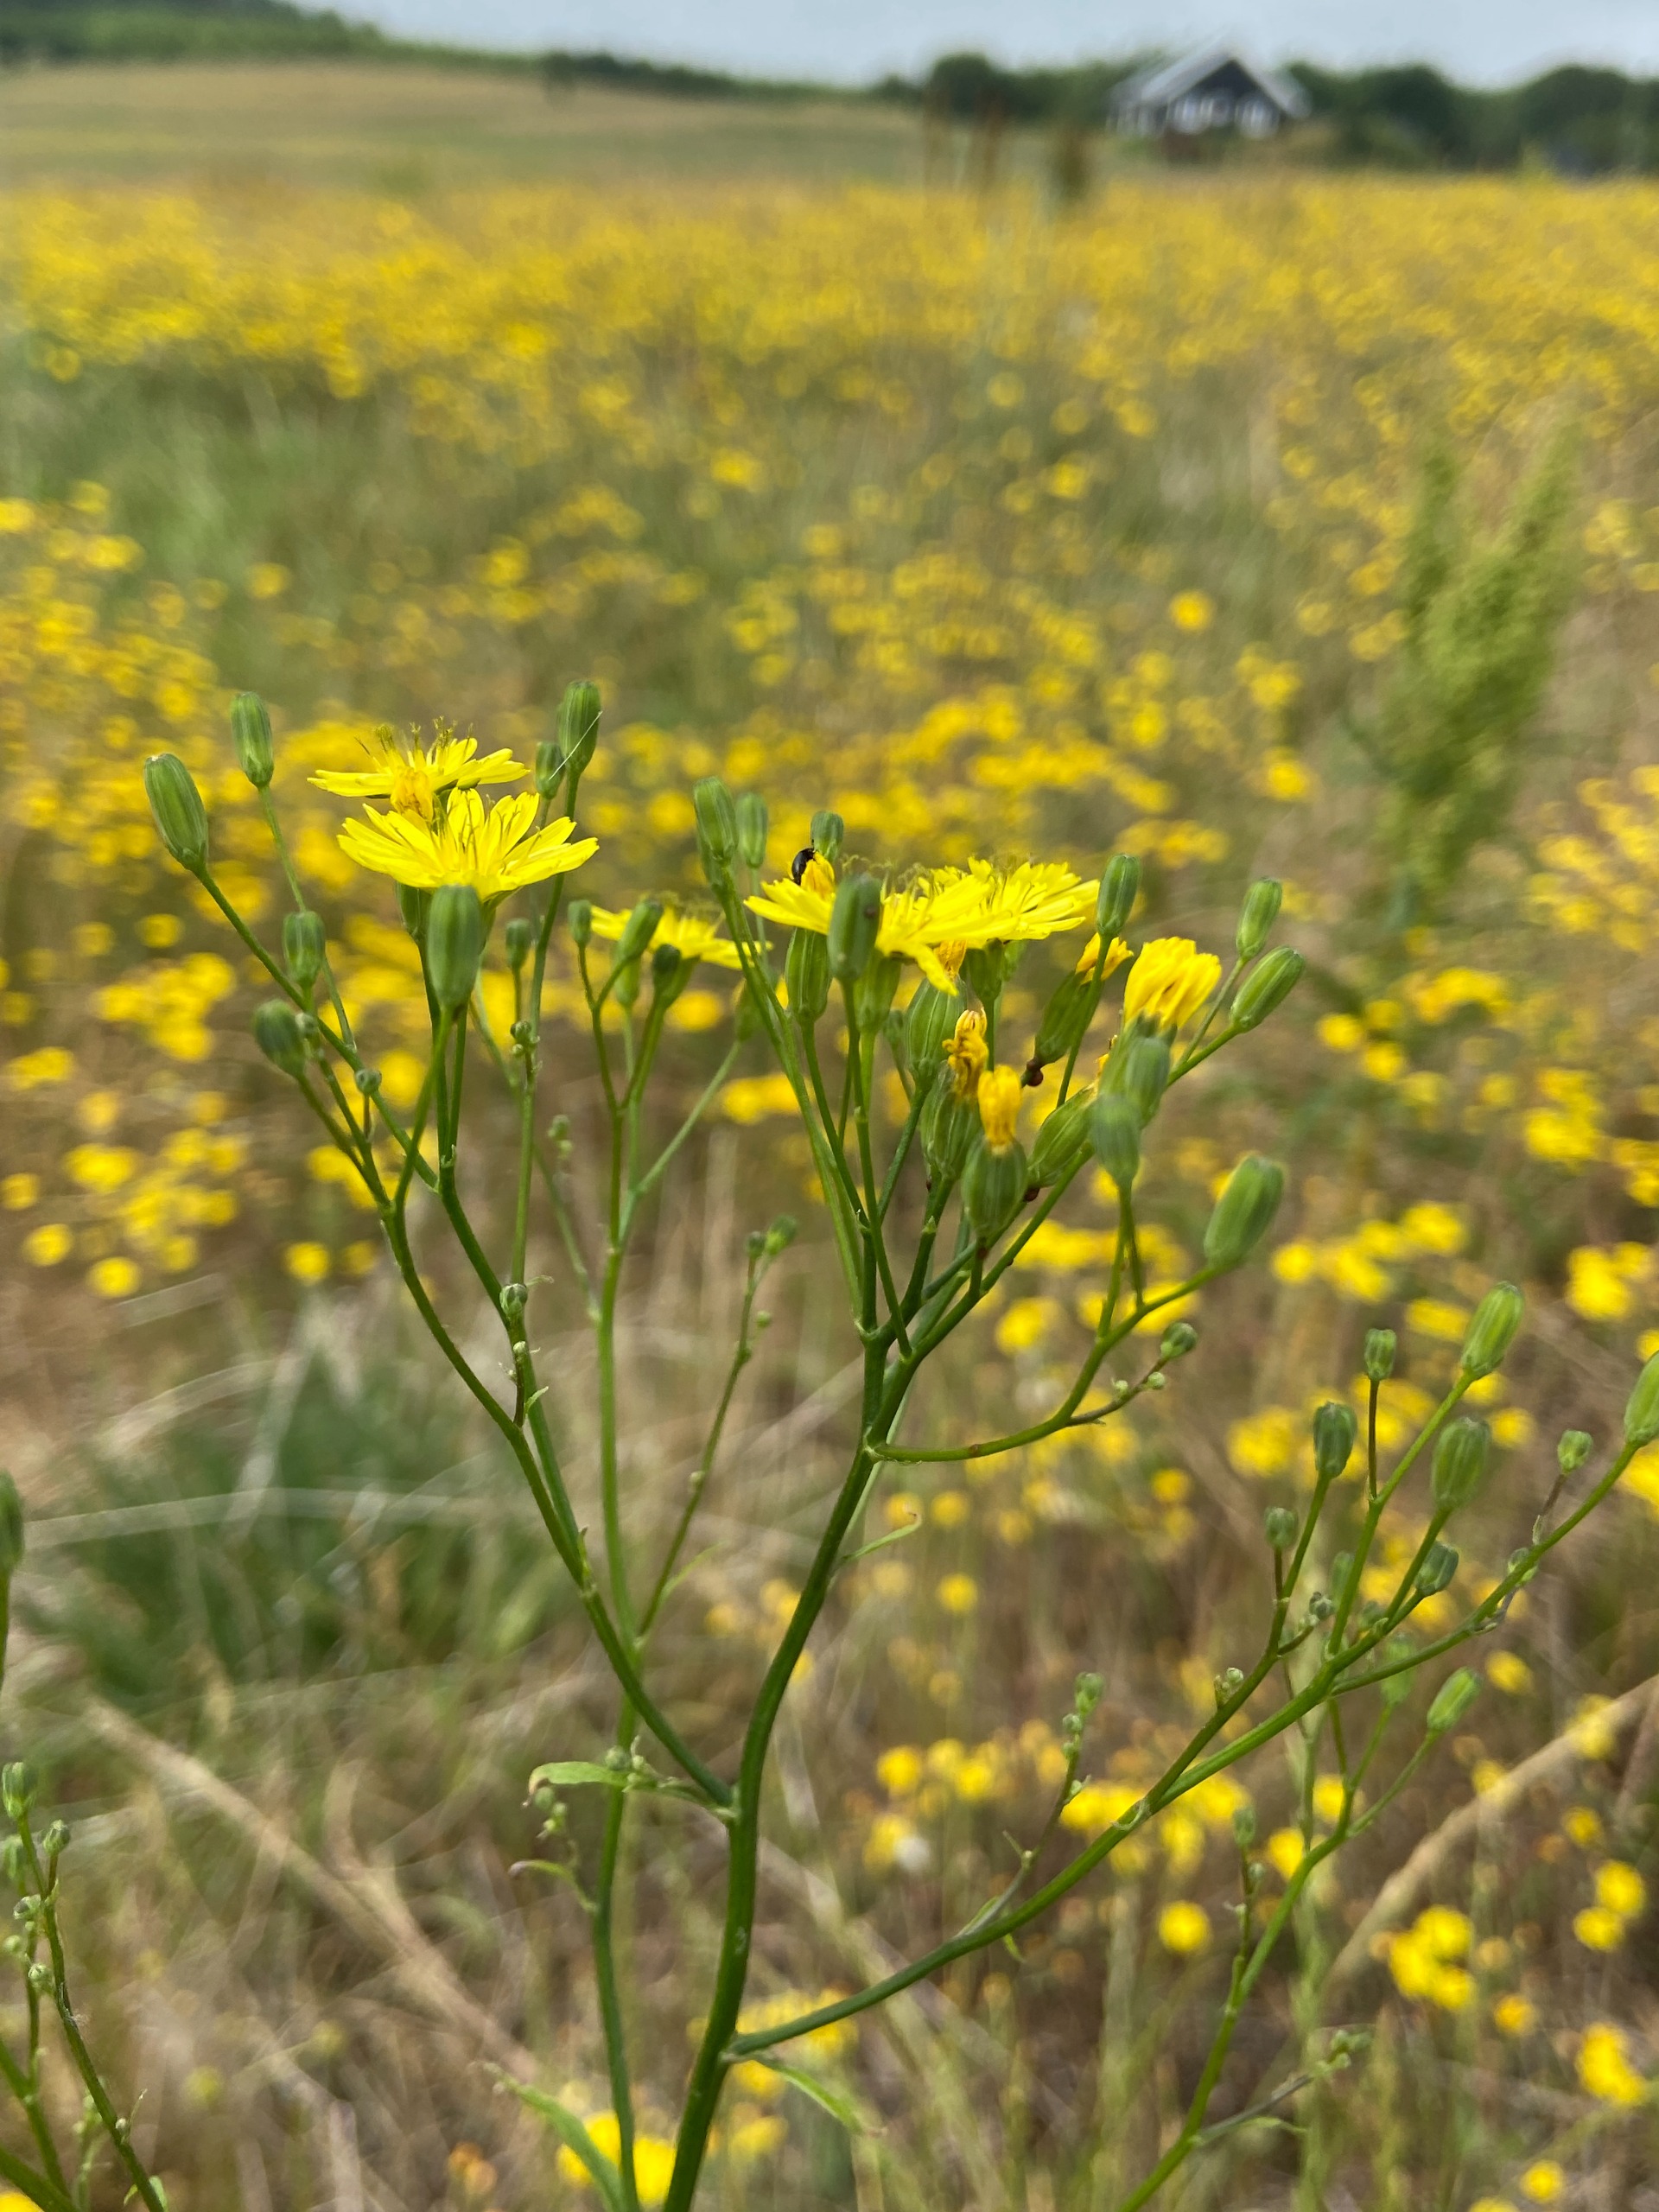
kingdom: Plantae
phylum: Tracheophyta
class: Magnoliopsida
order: Asterales
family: Asteraceae
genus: Lapsana
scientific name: Lapsana communis
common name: Haremad
